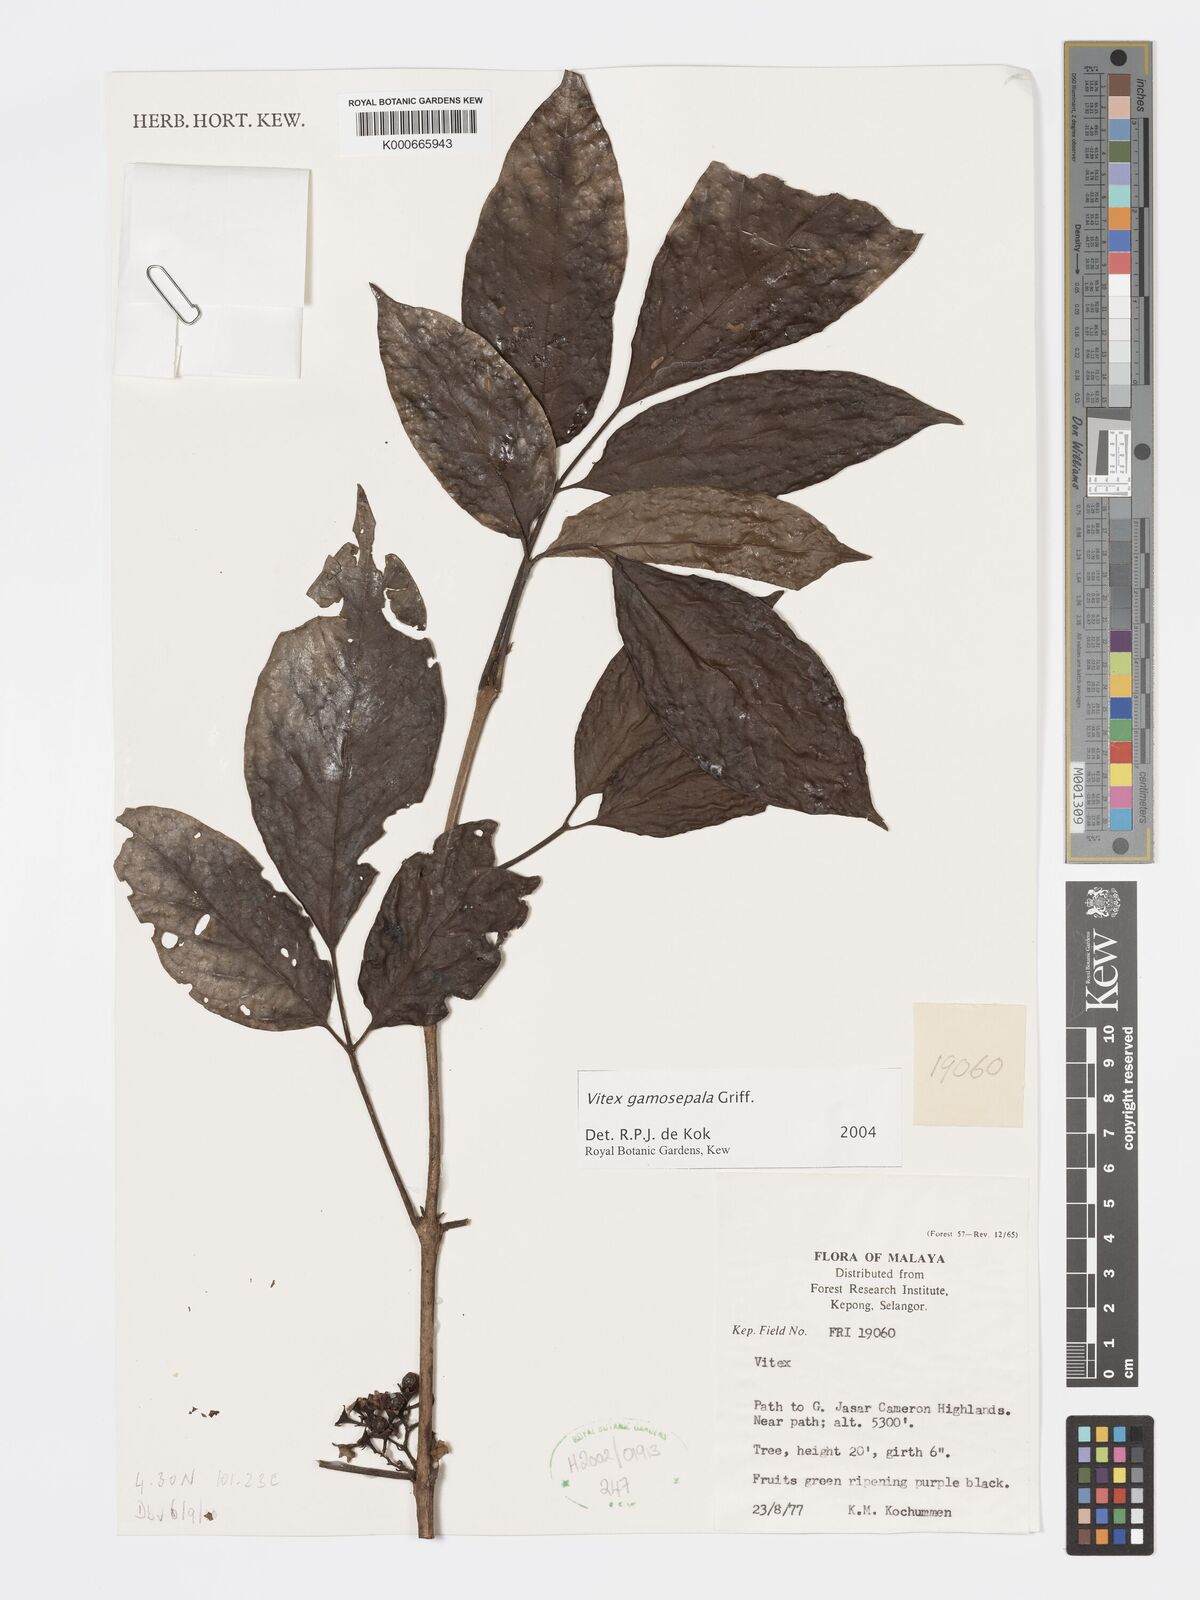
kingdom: Plantae
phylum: Tracheophyta
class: Magnoliopsida
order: Lamiales
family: Lamiaceae
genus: Vitex
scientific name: Vitex gamosepala
